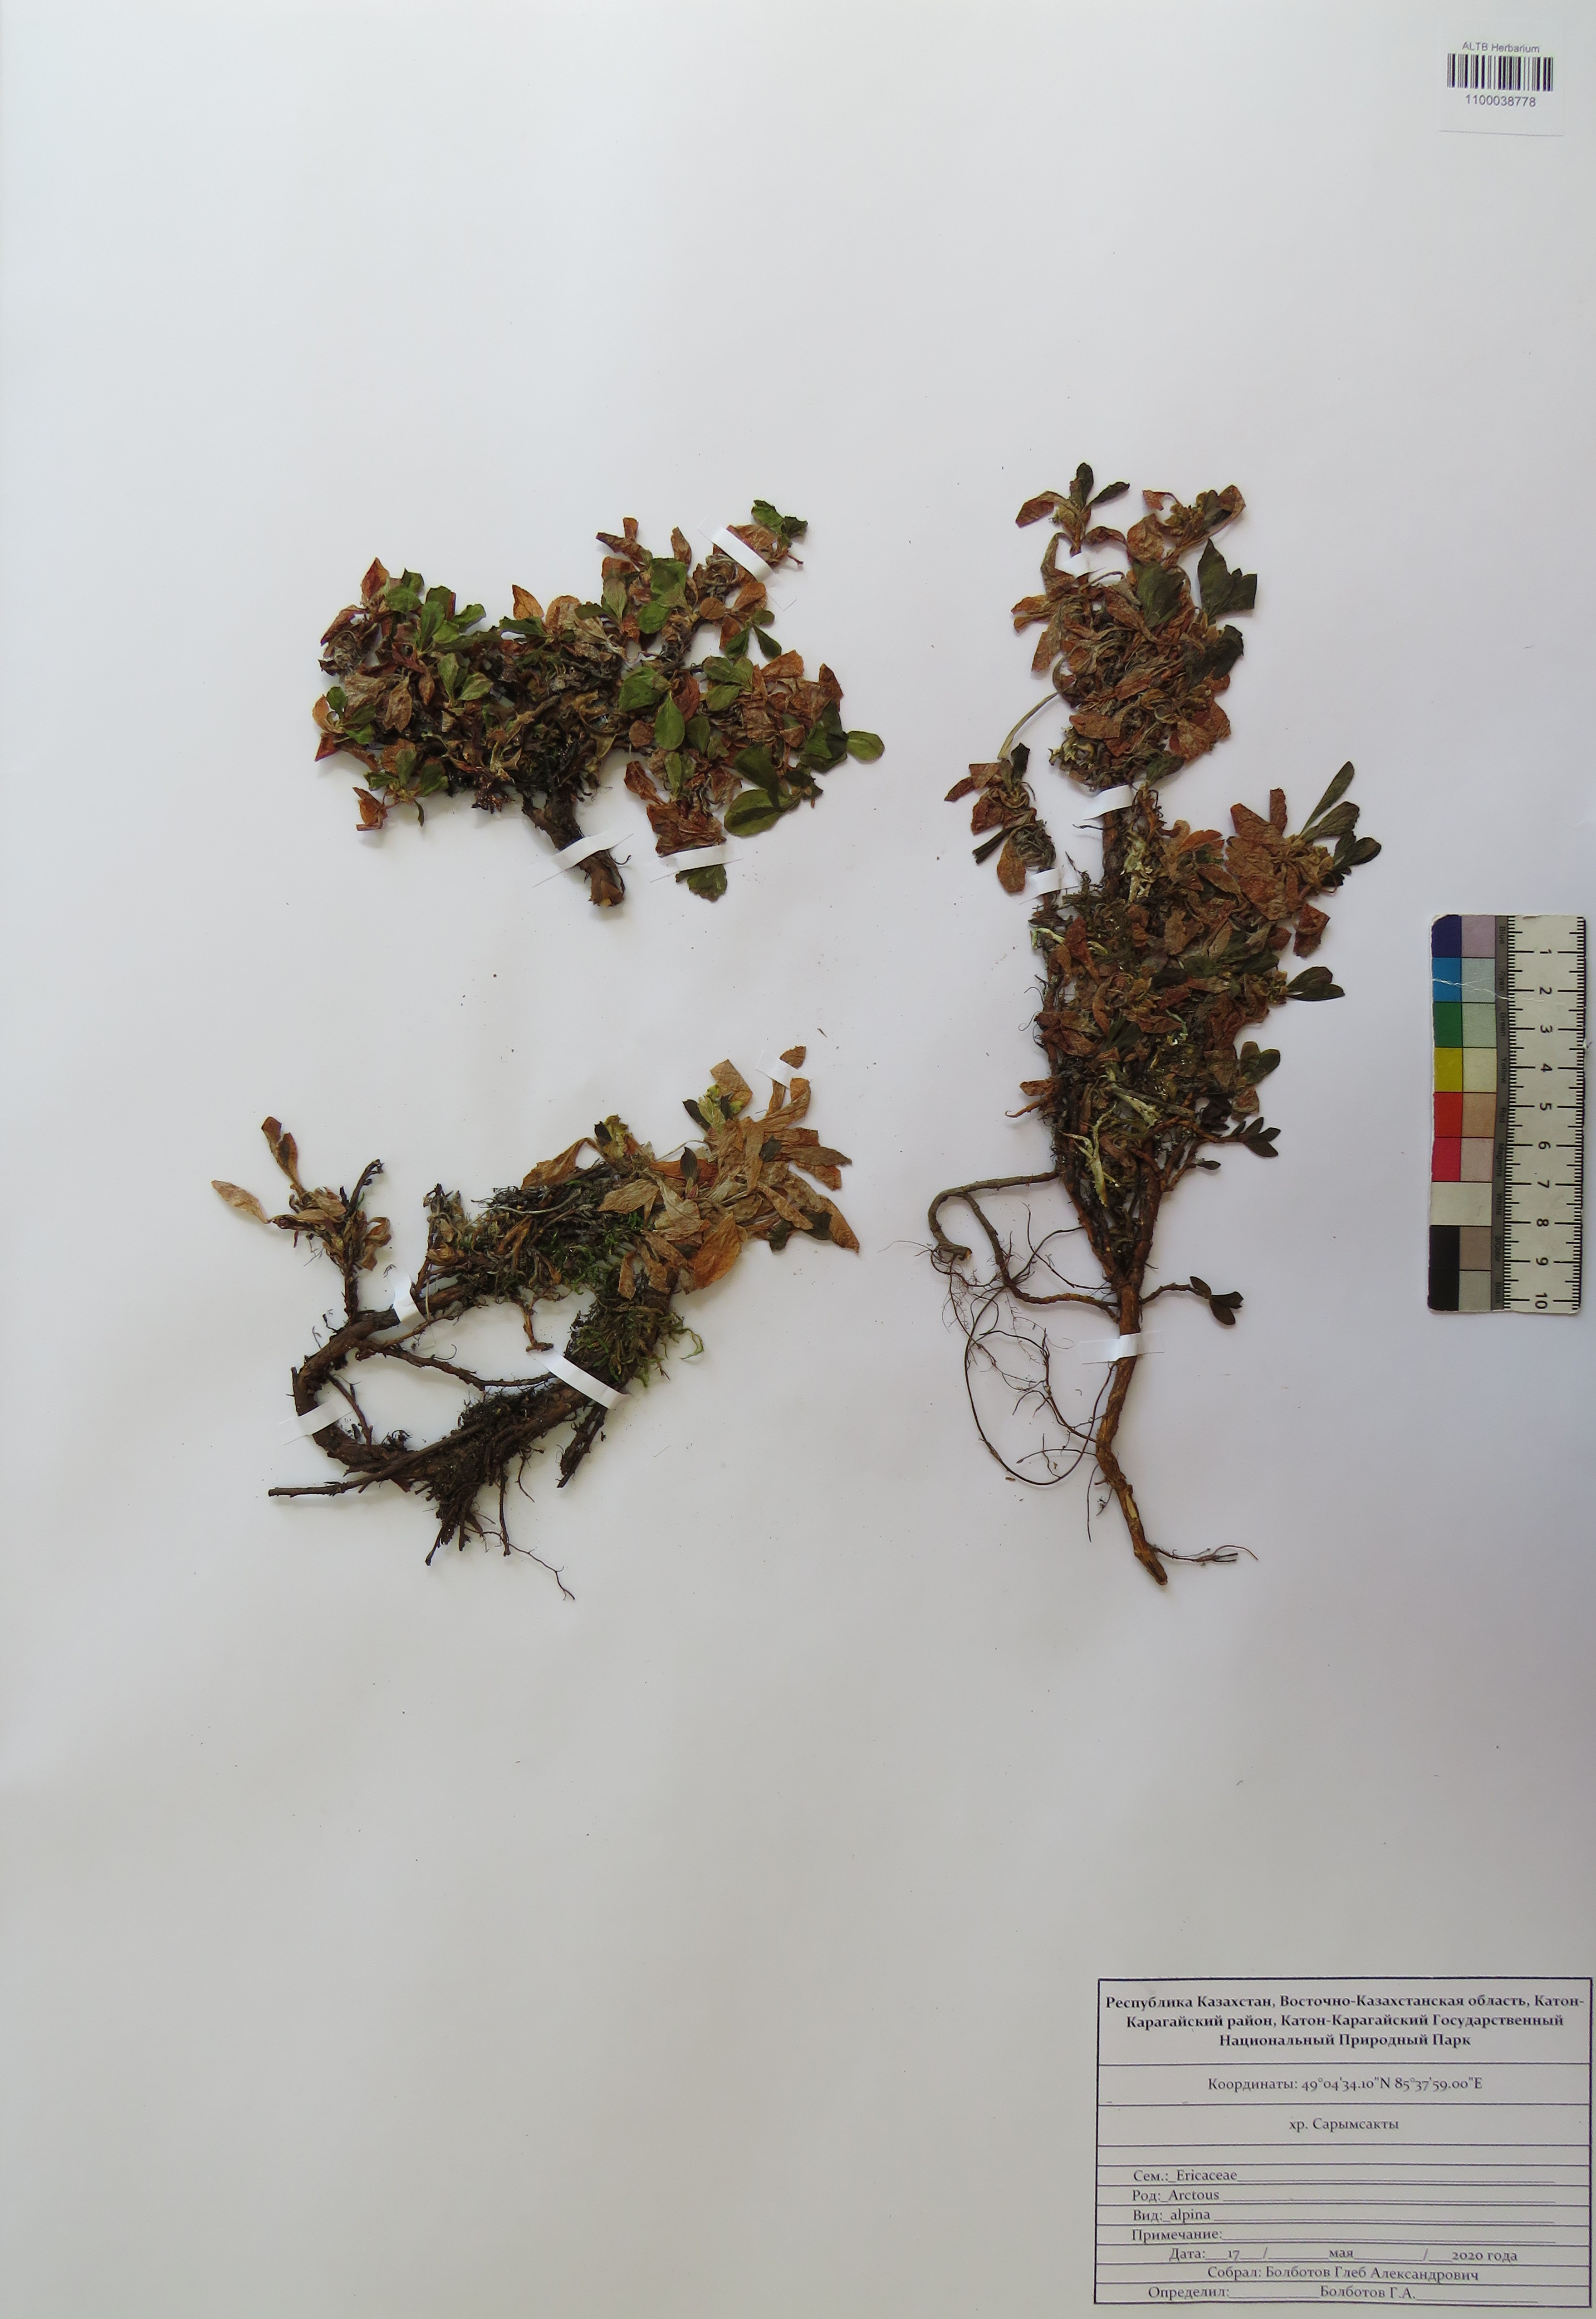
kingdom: Plantae
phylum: Tracheophyta
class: Magnoliopsida
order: Ericales
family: Ericaceae
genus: Arctostaphylos
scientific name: Arctostaphylos alpinus
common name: Alpine bearberry
